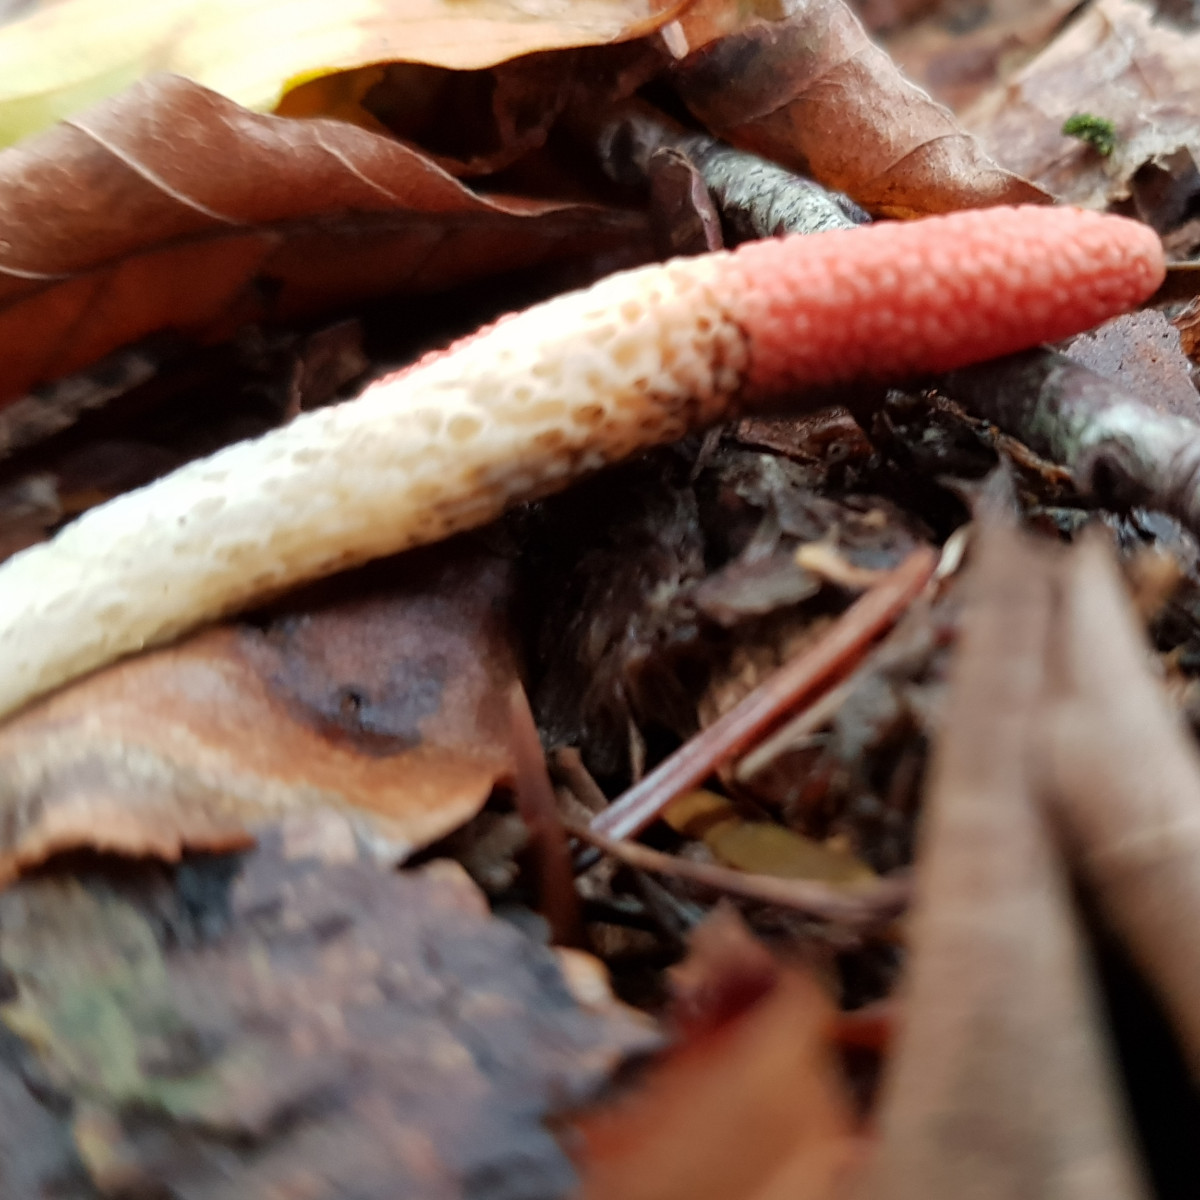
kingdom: Fungi
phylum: Basidiomycota
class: Agaricomycetes
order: Phallales
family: Phallaceae
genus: Mutinus
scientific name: Mutinus caninus
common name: hunde-stinksvamp
